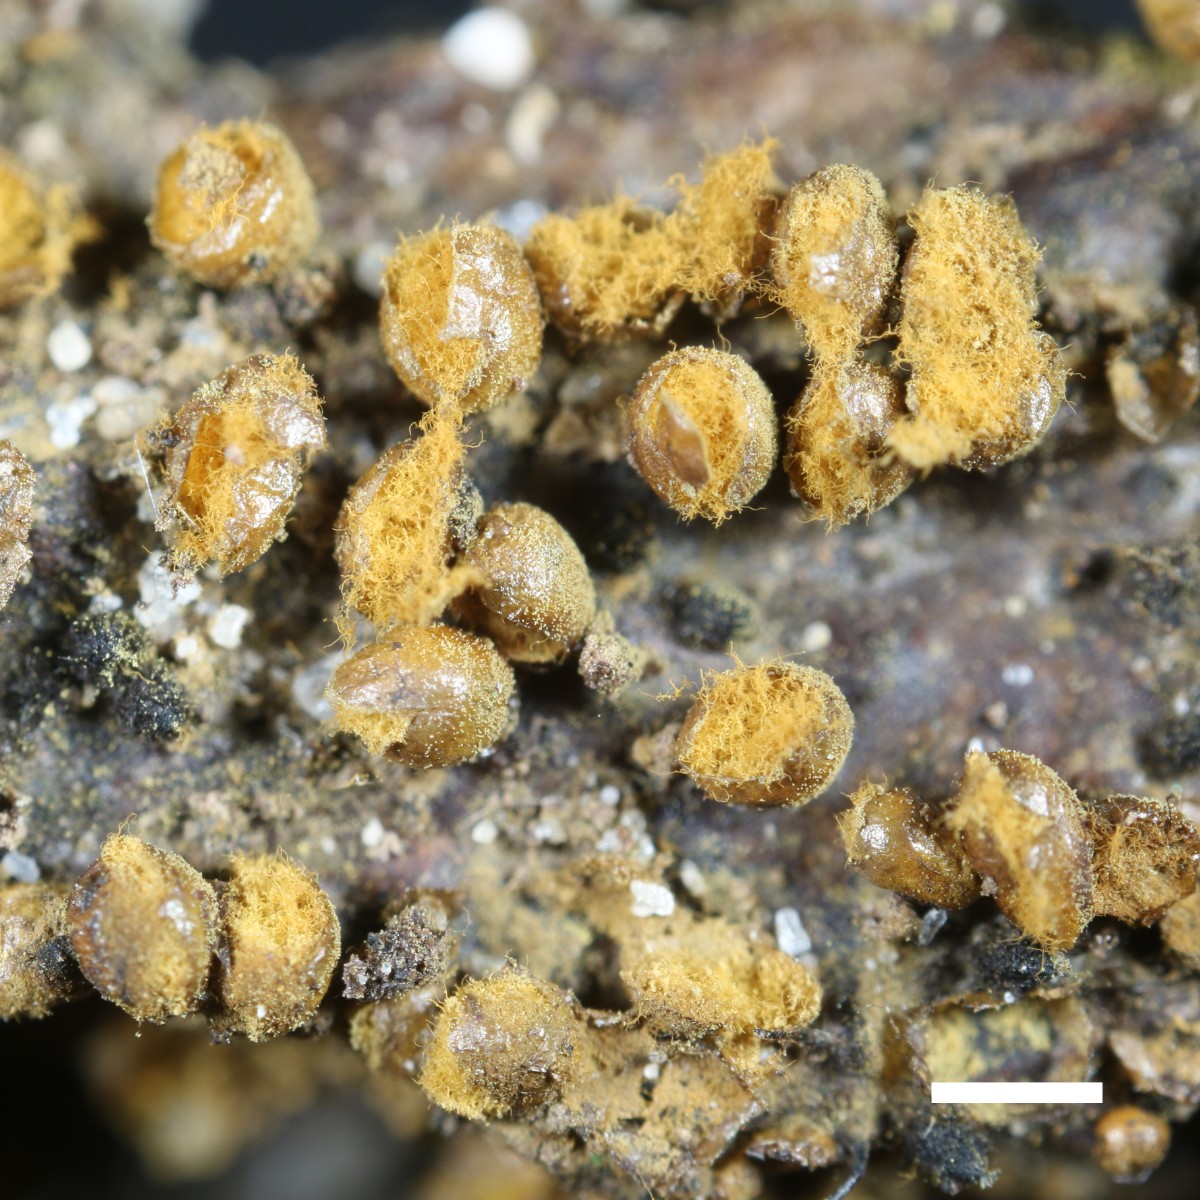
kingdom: Protozoa
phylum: Mycetozoa
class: Myxomycetes
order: Trichiales
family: Trichiaceae
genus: Trichia
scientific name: Trichia varia
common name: foranderlig hårbold
